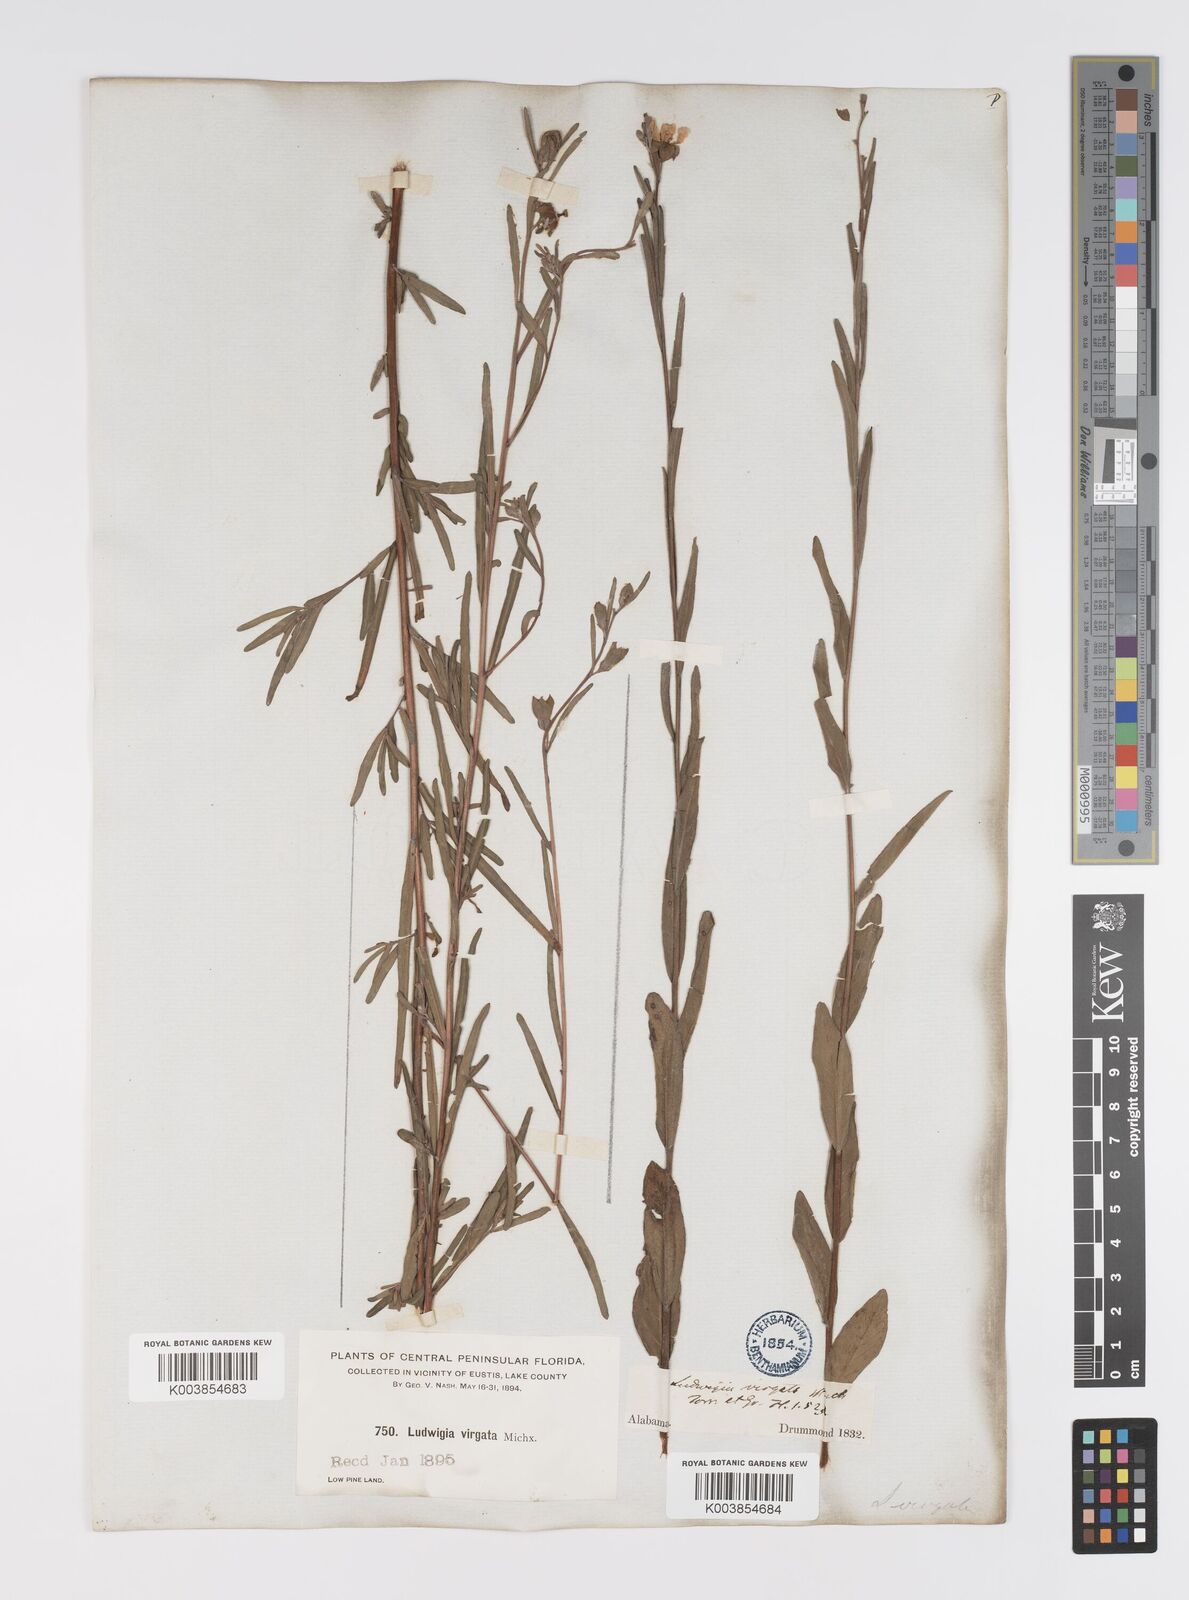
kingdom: Plantae
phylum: Tracheophyta
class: Magnoliopsida
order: Myrtales
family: Onagraceae
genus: Ludwigia
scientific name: Ludwigia virgata
